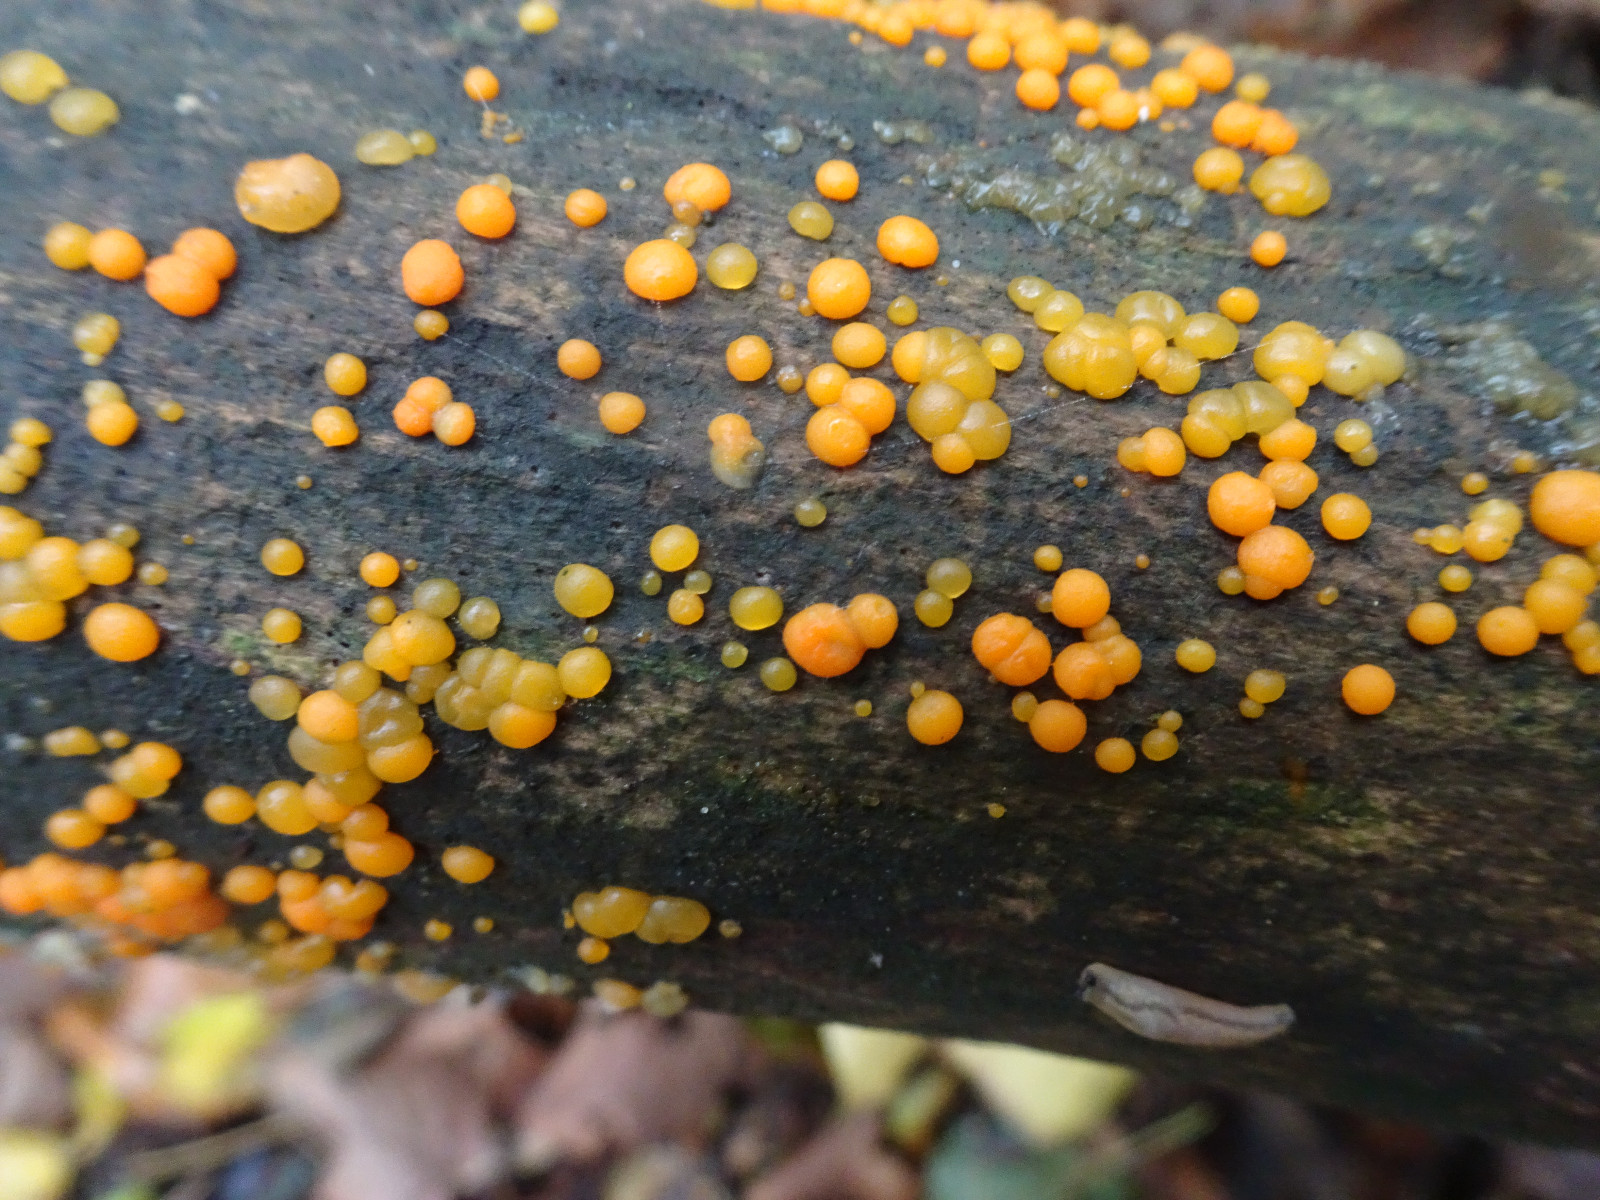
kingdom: Fungi
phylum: Basidiomycota
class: Dacrymycetes
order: Dacrymycetales
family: Dacrymycetaceae
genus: Dacrymyces
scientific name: Dacrymyces stillatus
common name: almindelig tåresvamp
